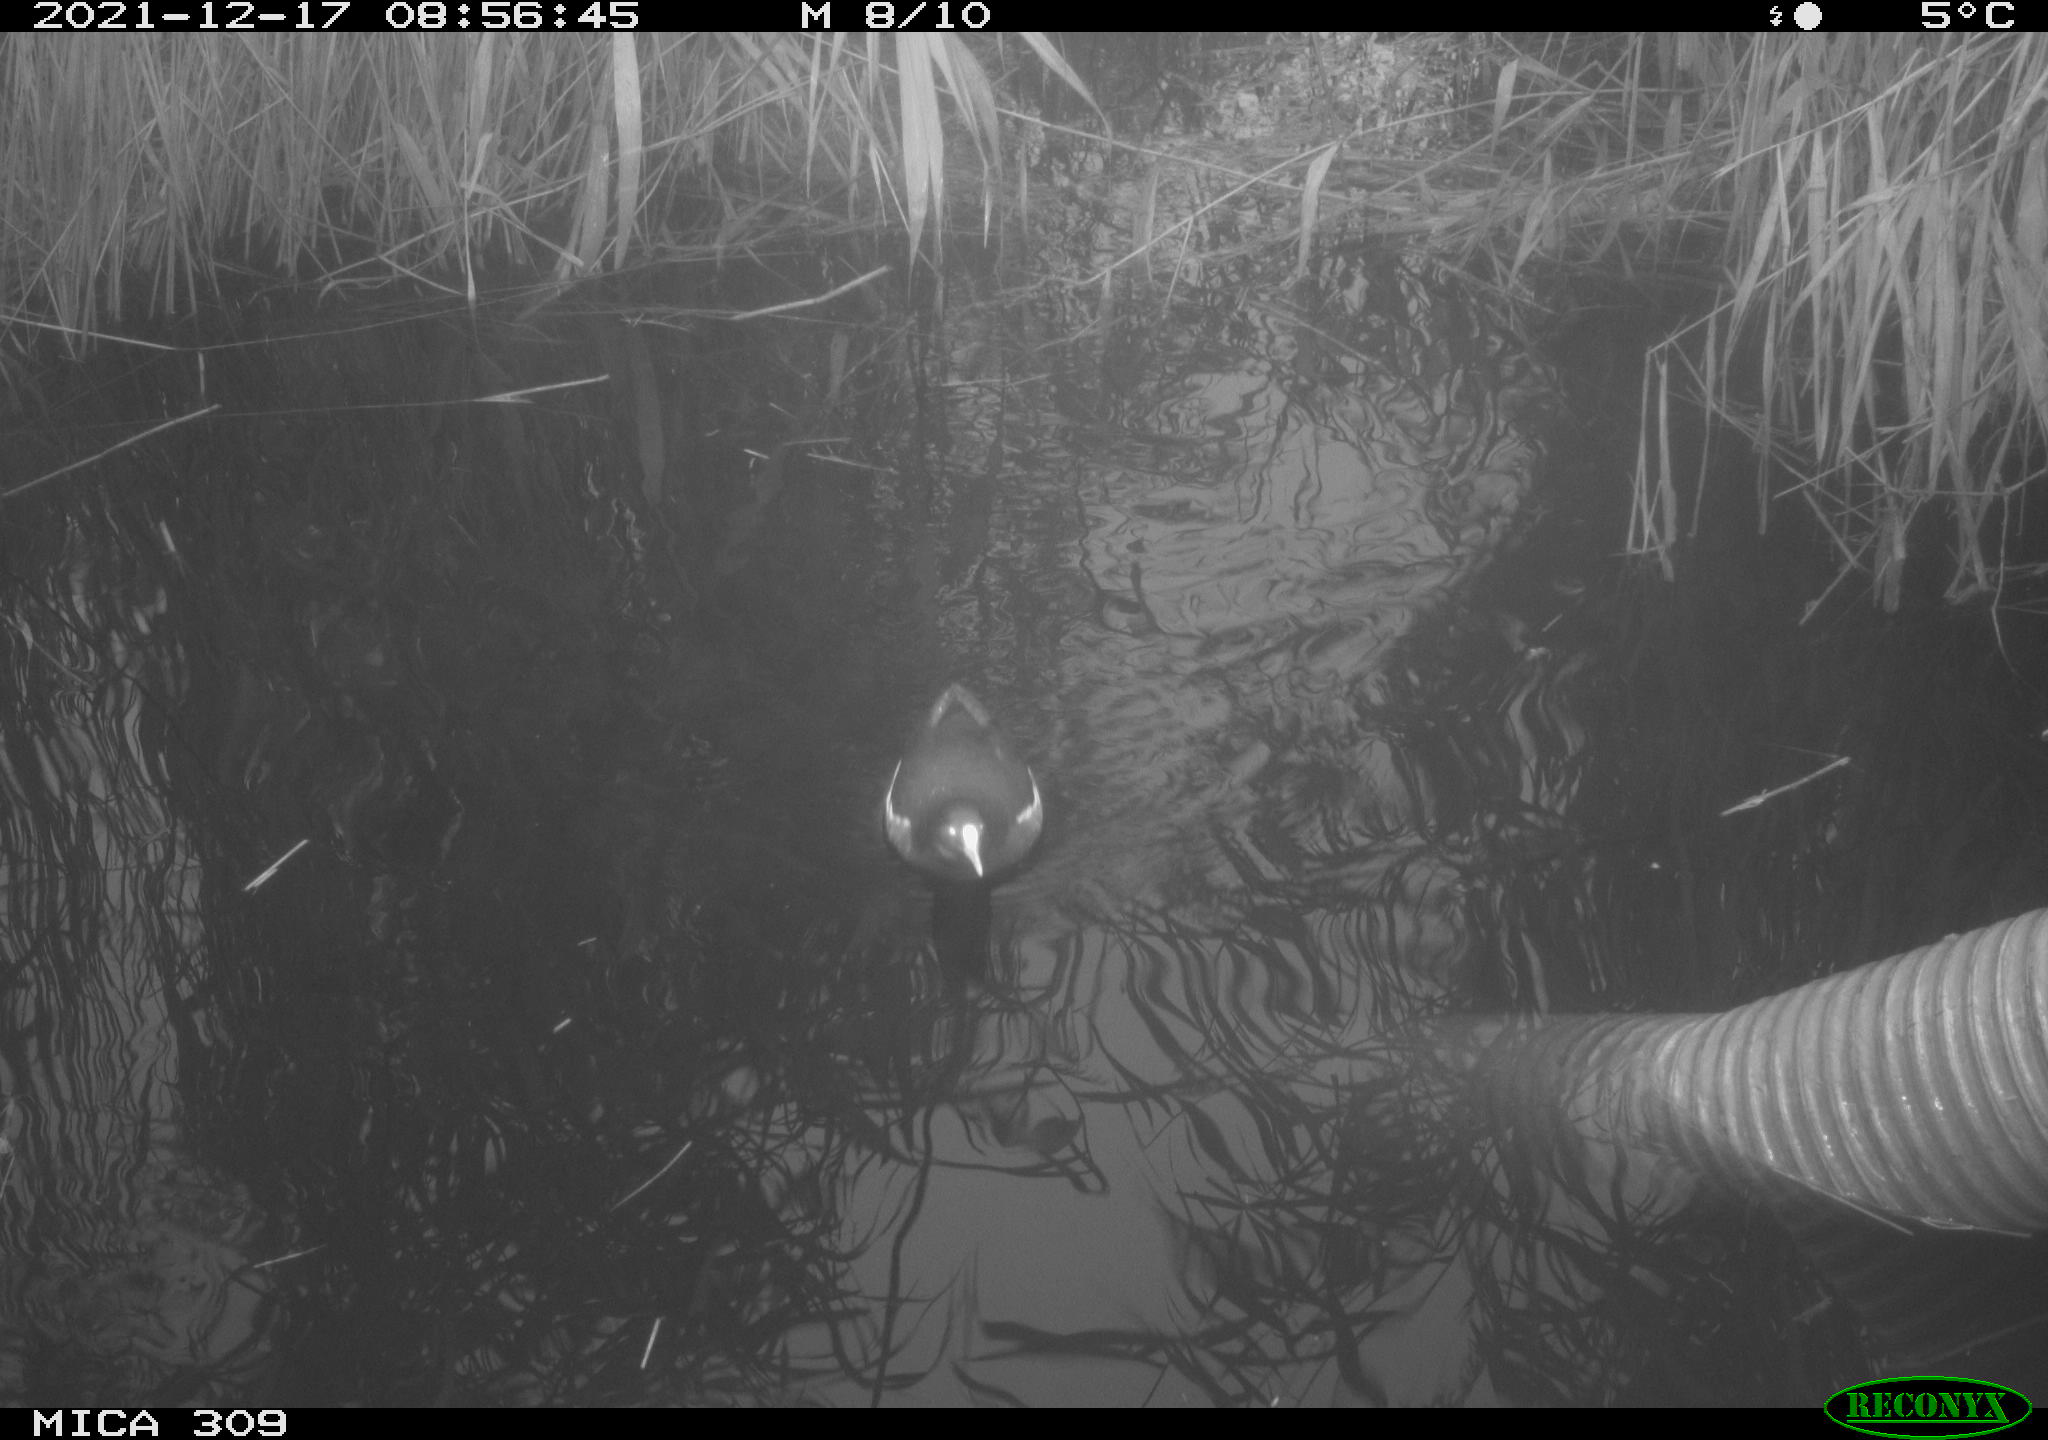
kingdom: Animalia
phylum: Chordata
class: Aves
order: Gruiformes
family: Rallidae
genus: Gallinula
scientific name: Gallinula chloropus
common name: Common moorhen
